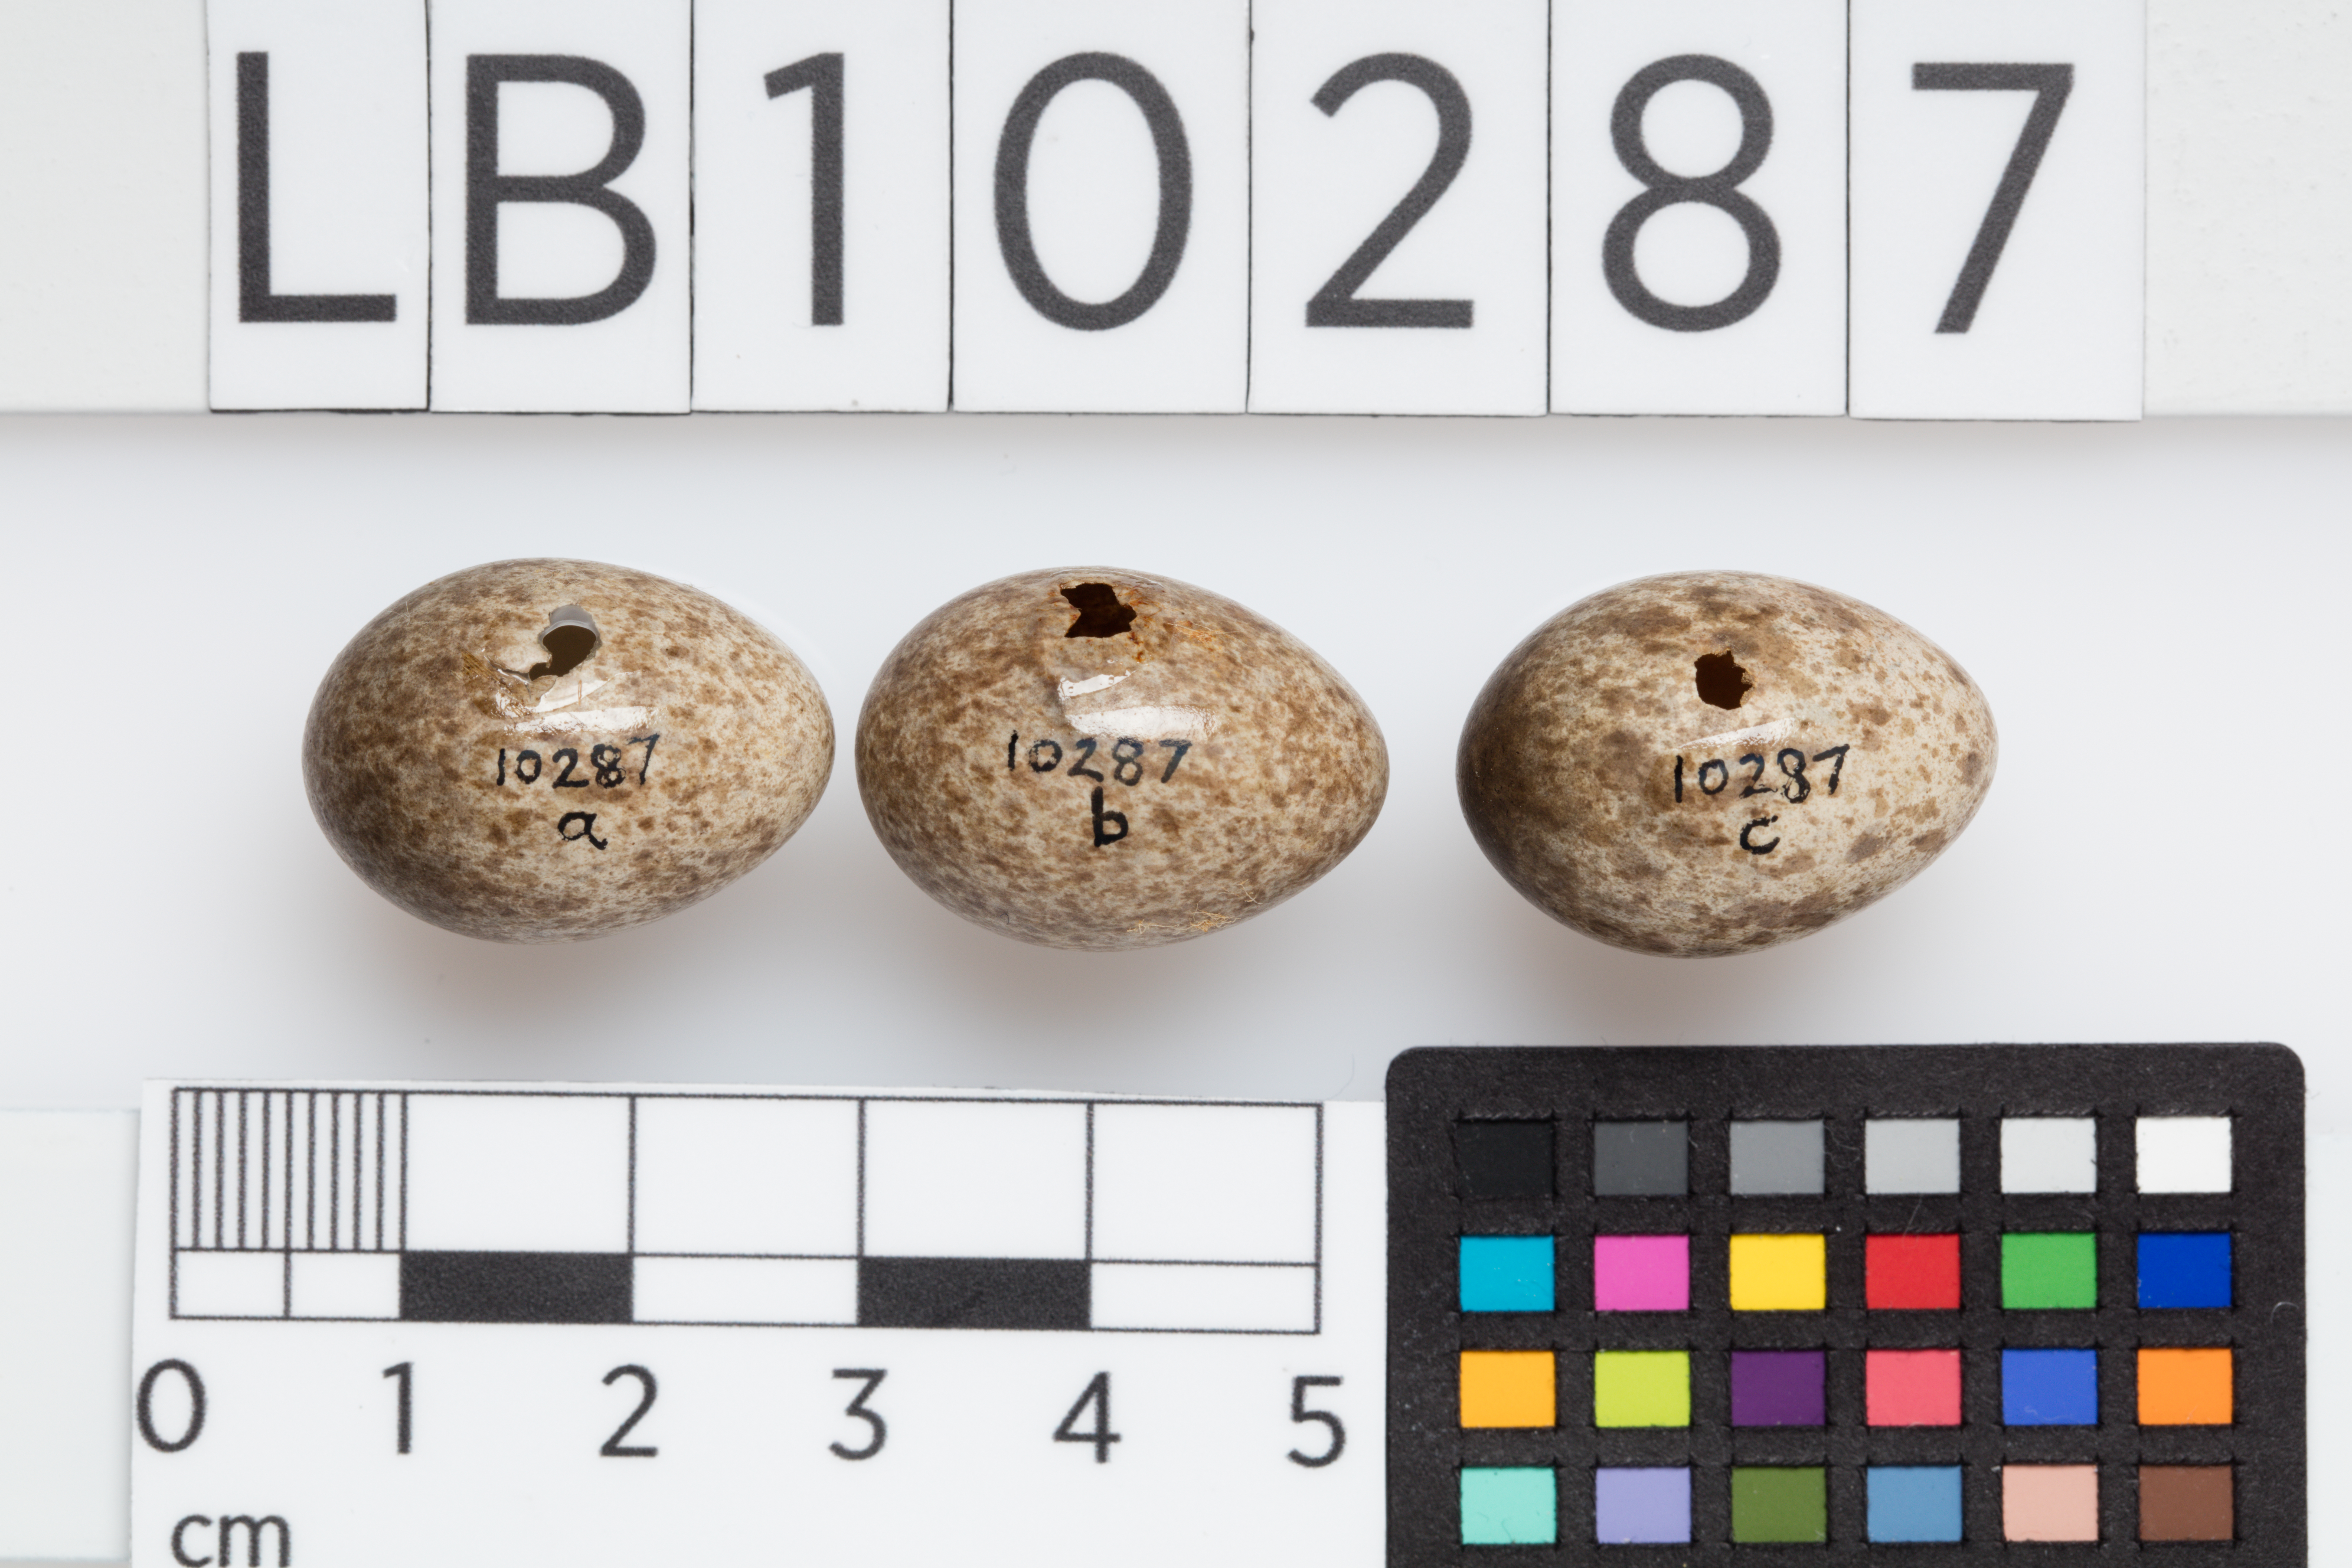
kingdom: Animalia
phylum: Chordata
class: Aves
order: Passeriformes
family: Motacillidae
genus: Anthus
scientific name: Anthus novaeseelandiae
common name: New zealand pipit
